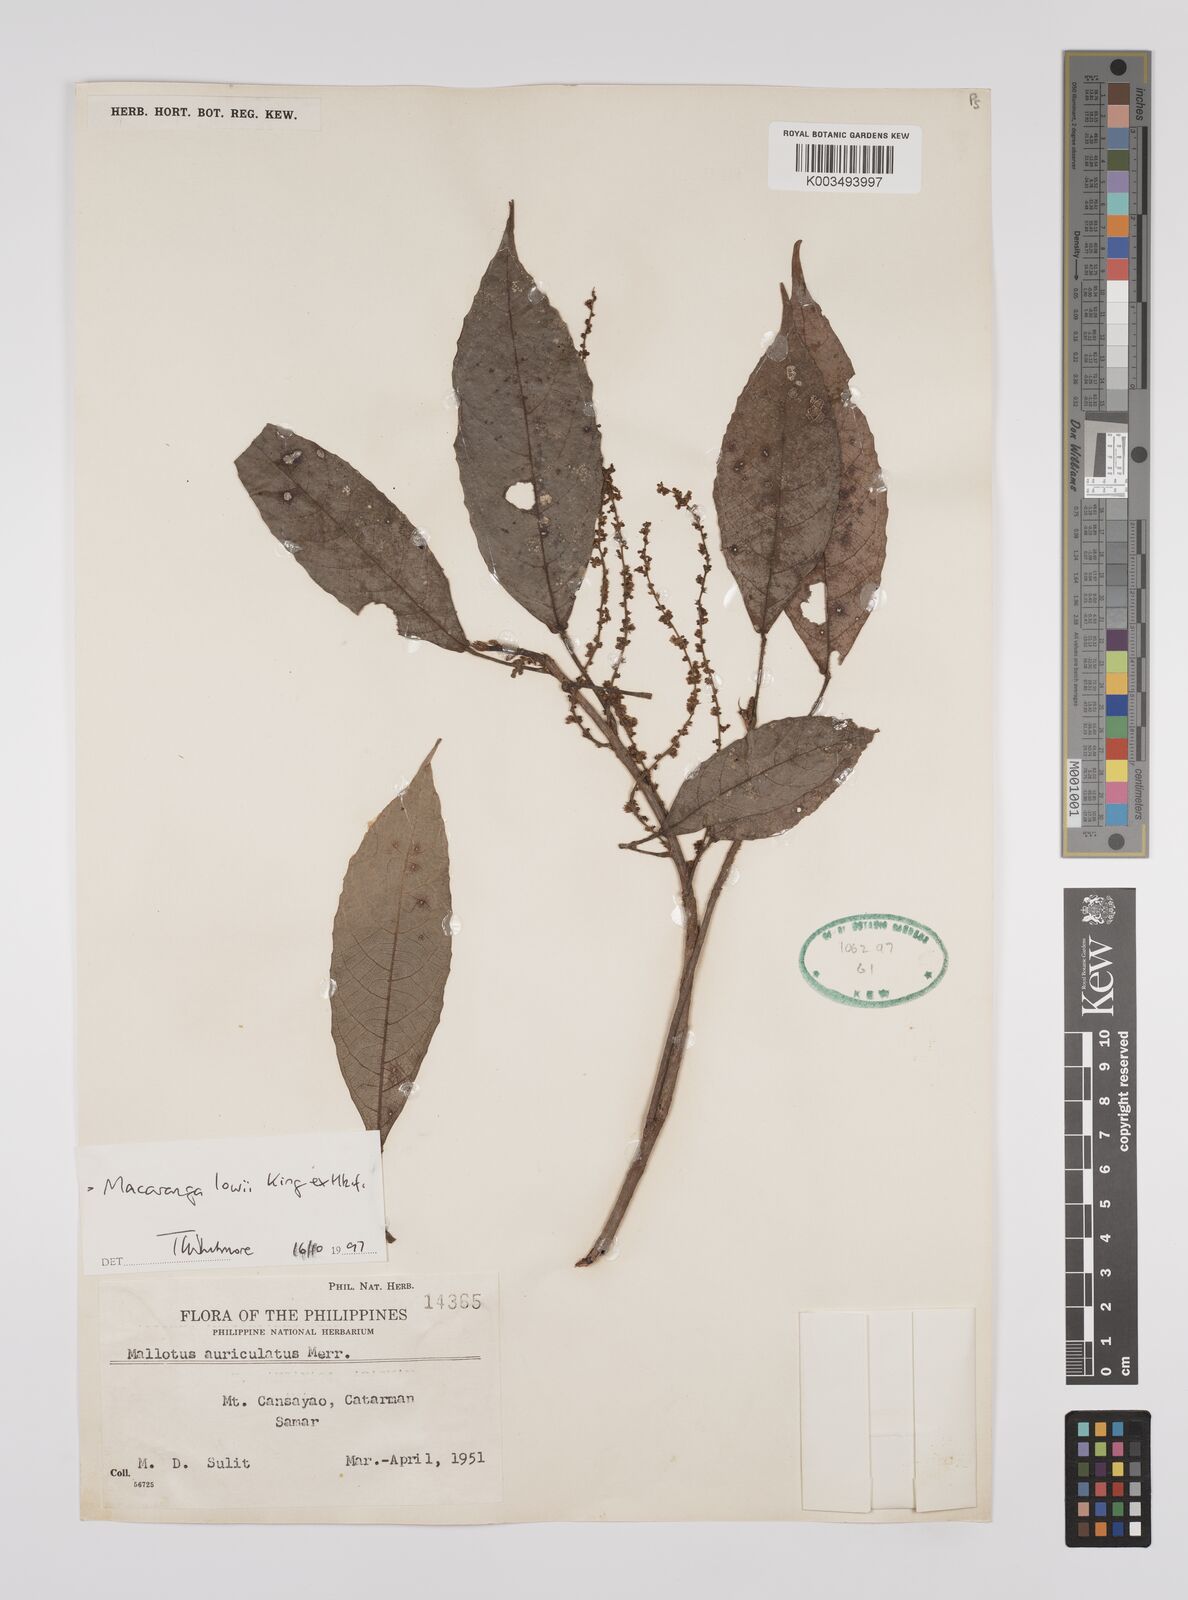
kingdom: Plantae
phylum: Tracheophyta
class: Magnoliopsida
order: Malpighiales
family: Euphorbiaceae
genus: Macaranga
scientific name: Macaranga lowii
